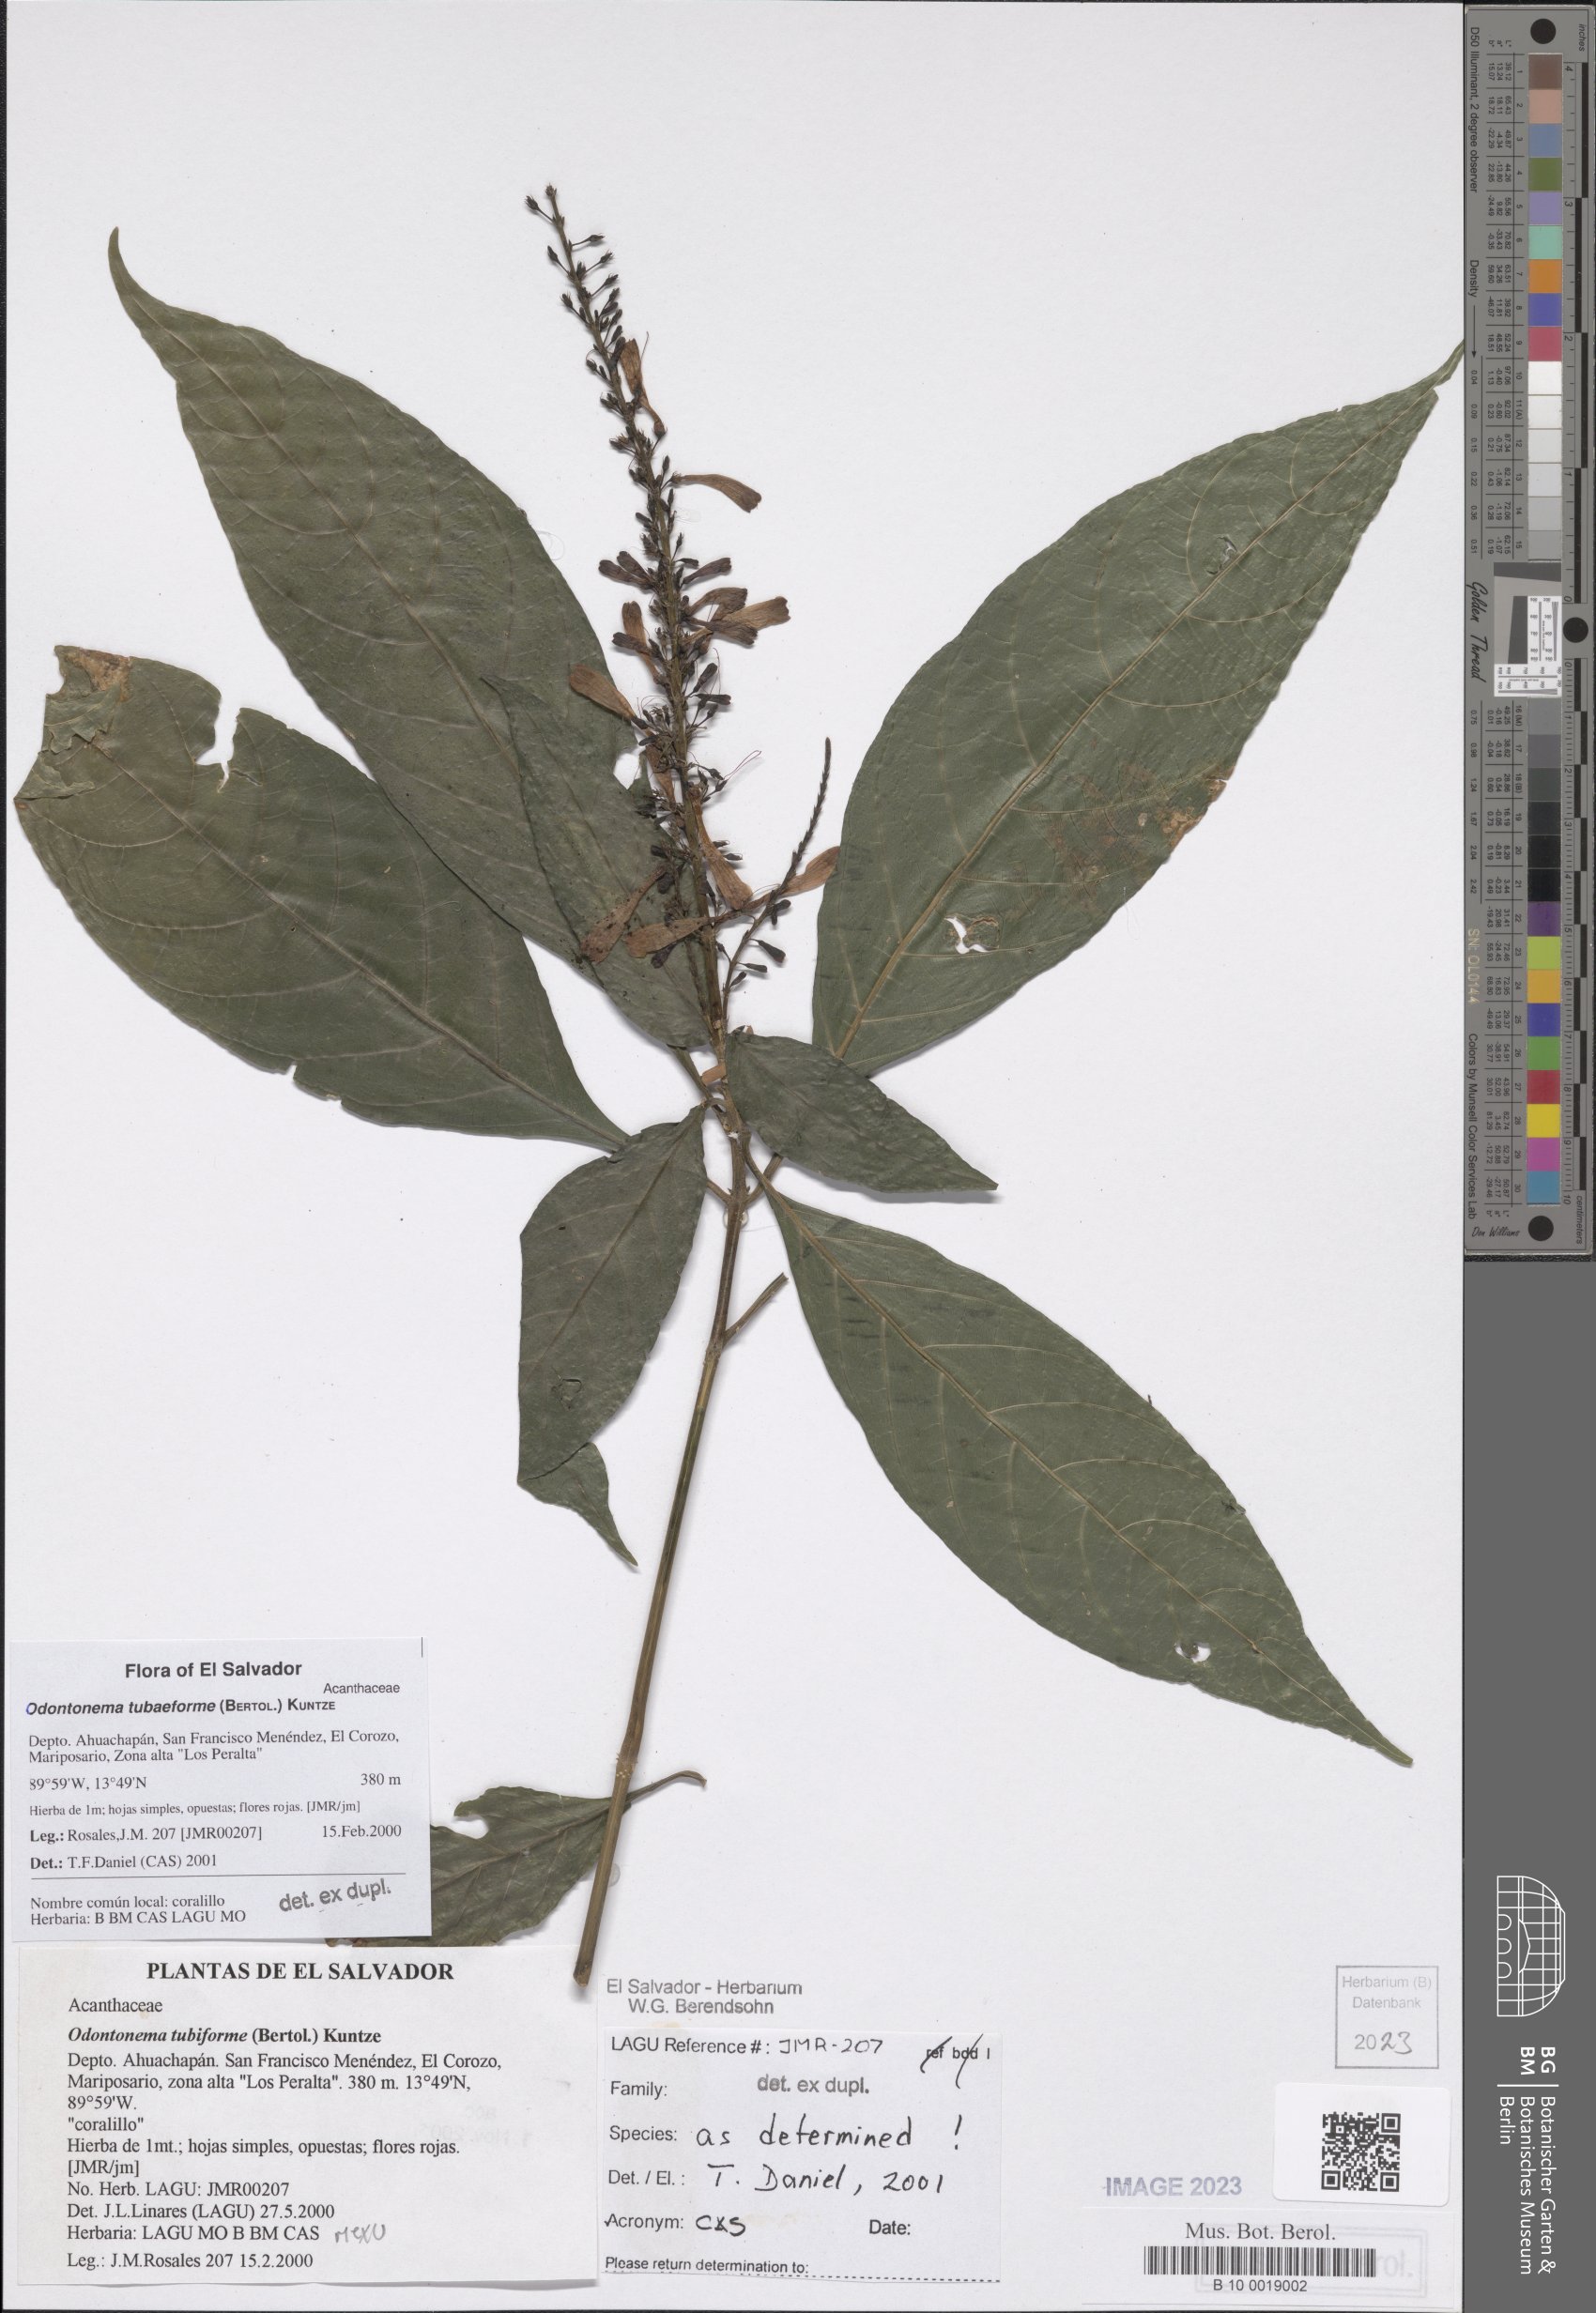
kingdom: Plantae
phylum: Tracheophyta
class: Magnoliopsida
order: Lamiales
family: Acanthaceae
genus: Odontonema
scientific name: Odontonema tubaeforme
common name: Firespike
